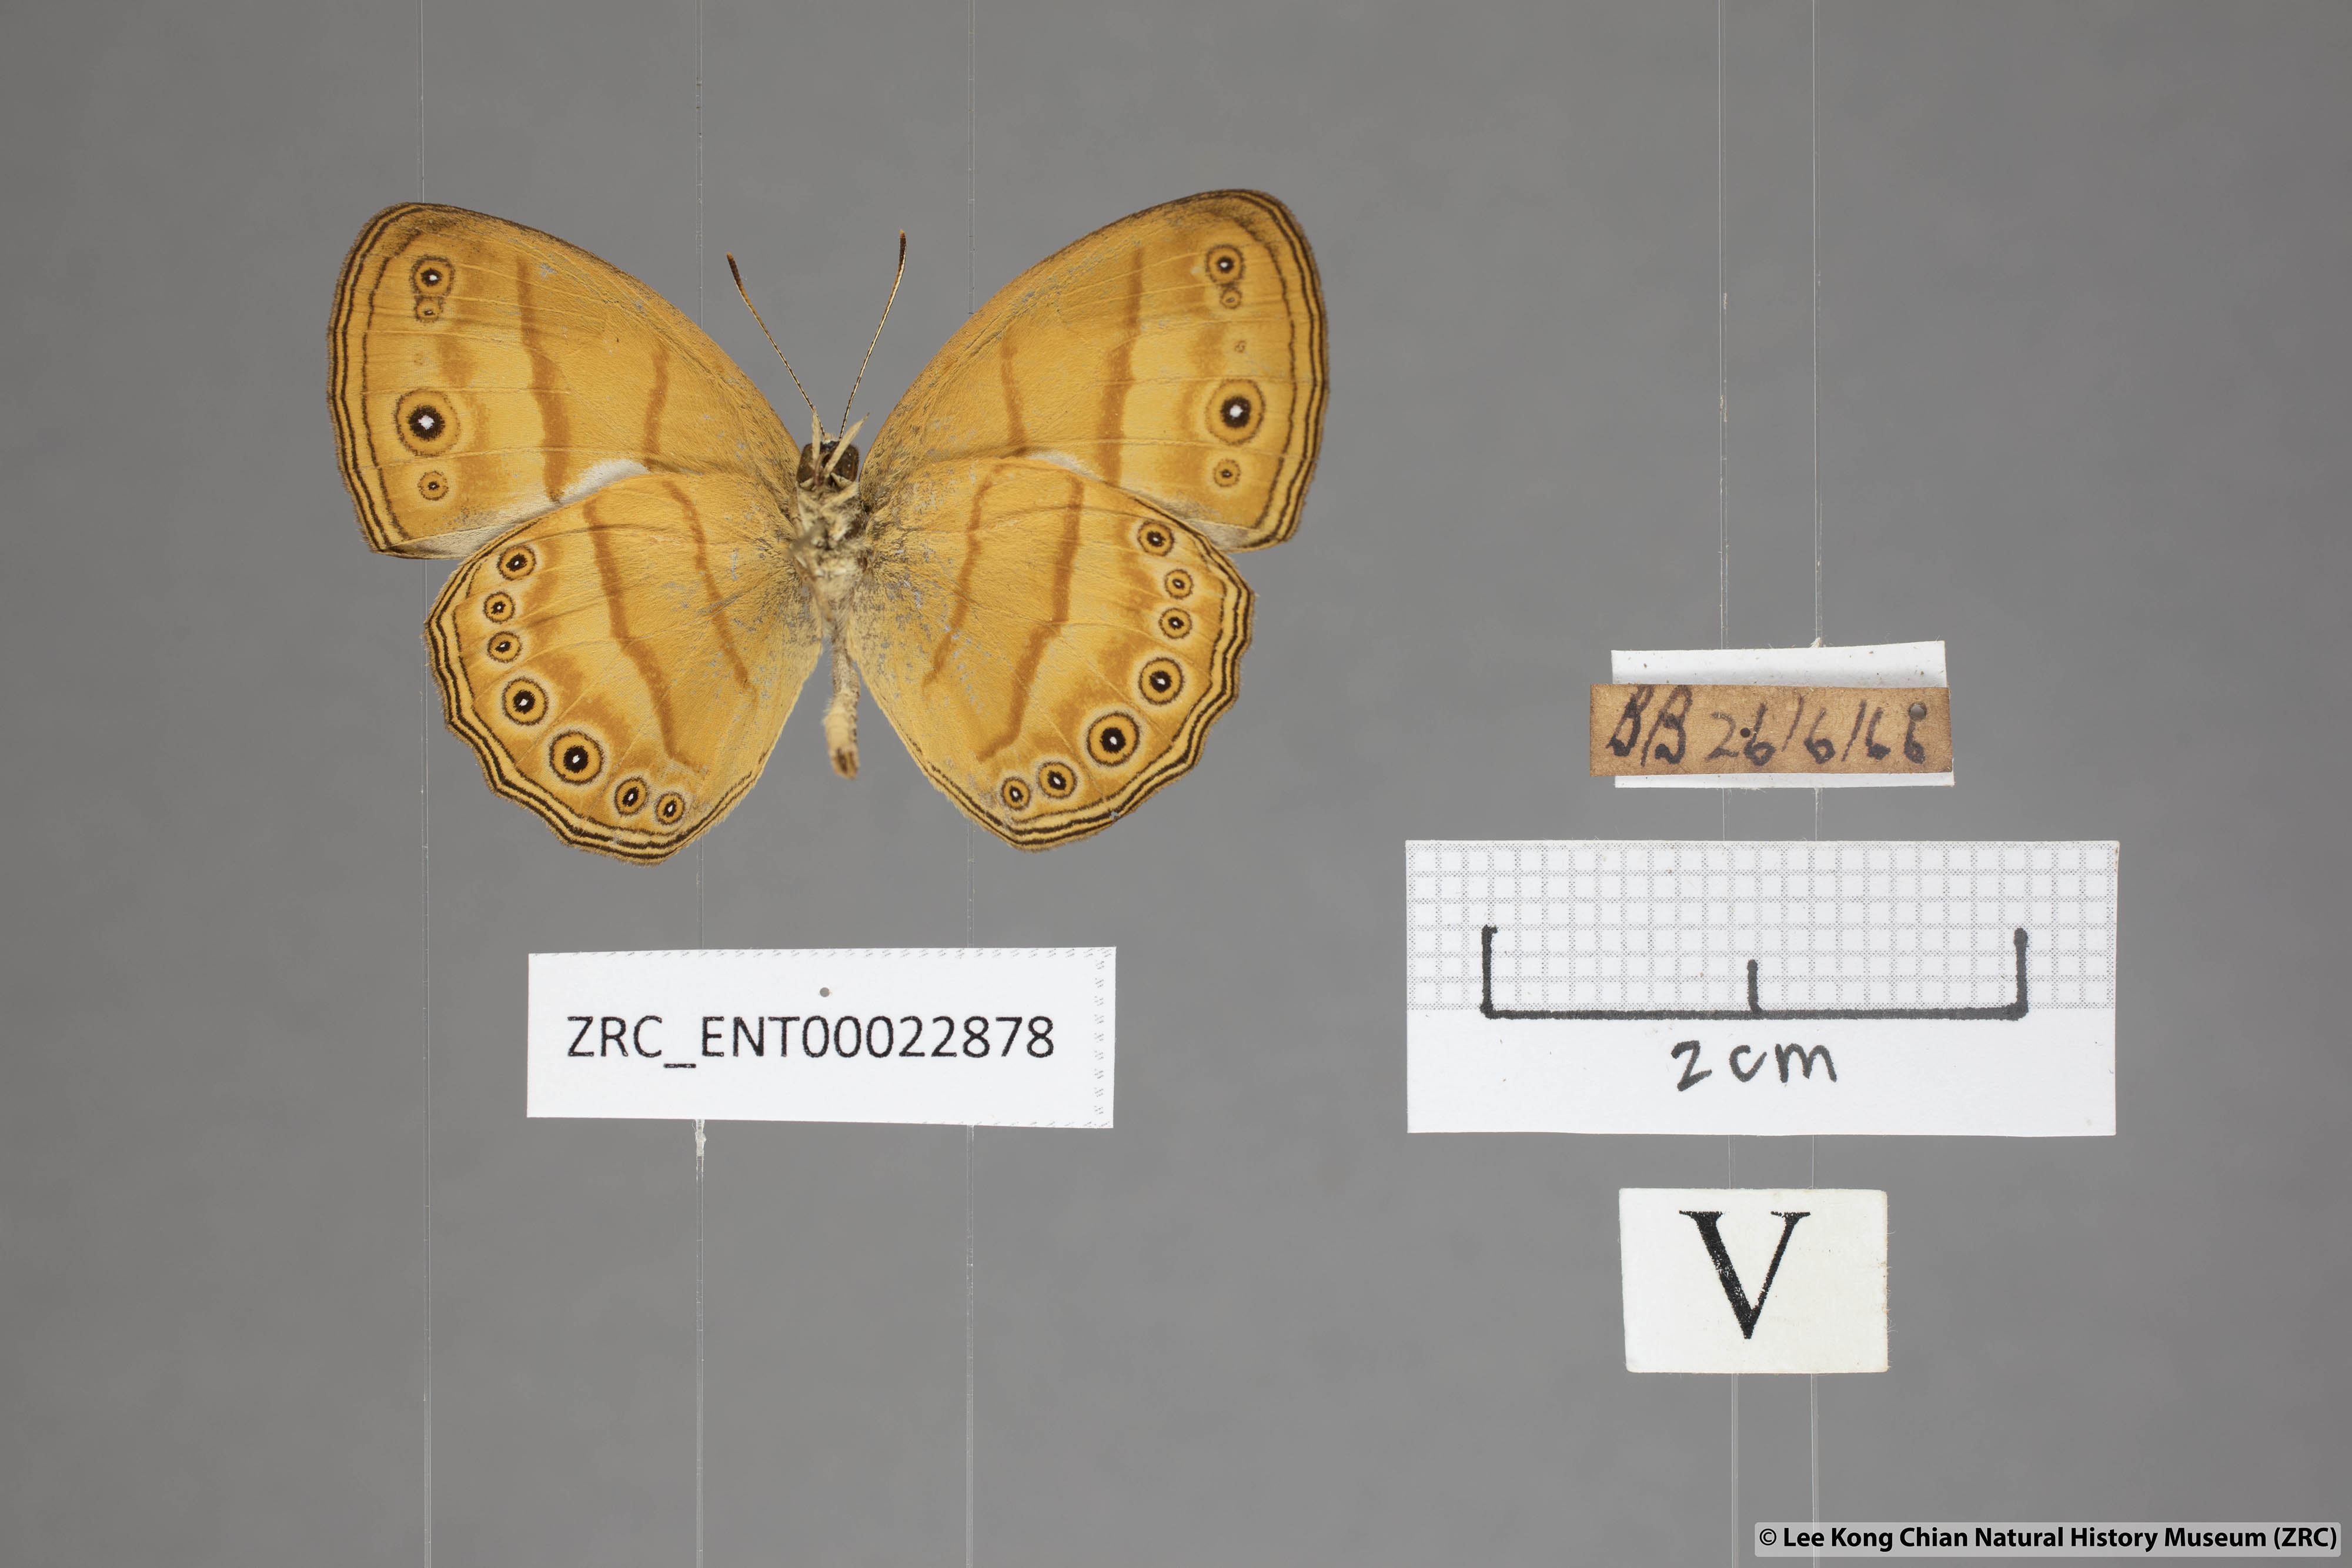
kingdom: Animalia
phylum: Arthropoda
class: Insecta
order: Lepidoptera
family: Nymphalidae
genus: Mycalesis
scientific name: Mycalesis anapita
